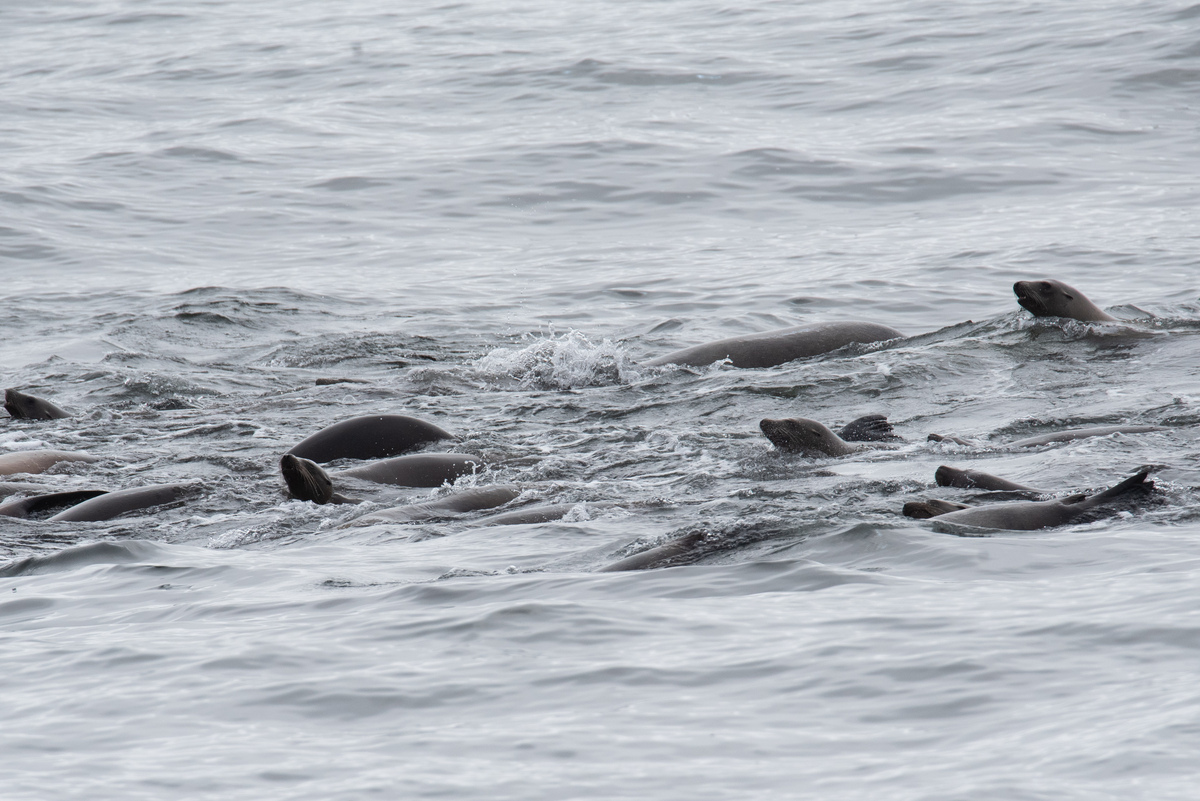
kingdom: Animalia
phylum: Chordata
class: Mammalia
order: Carnivora
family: Otariidae
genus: Zalophus
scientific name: Zalophus californianus
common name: California sea lion
